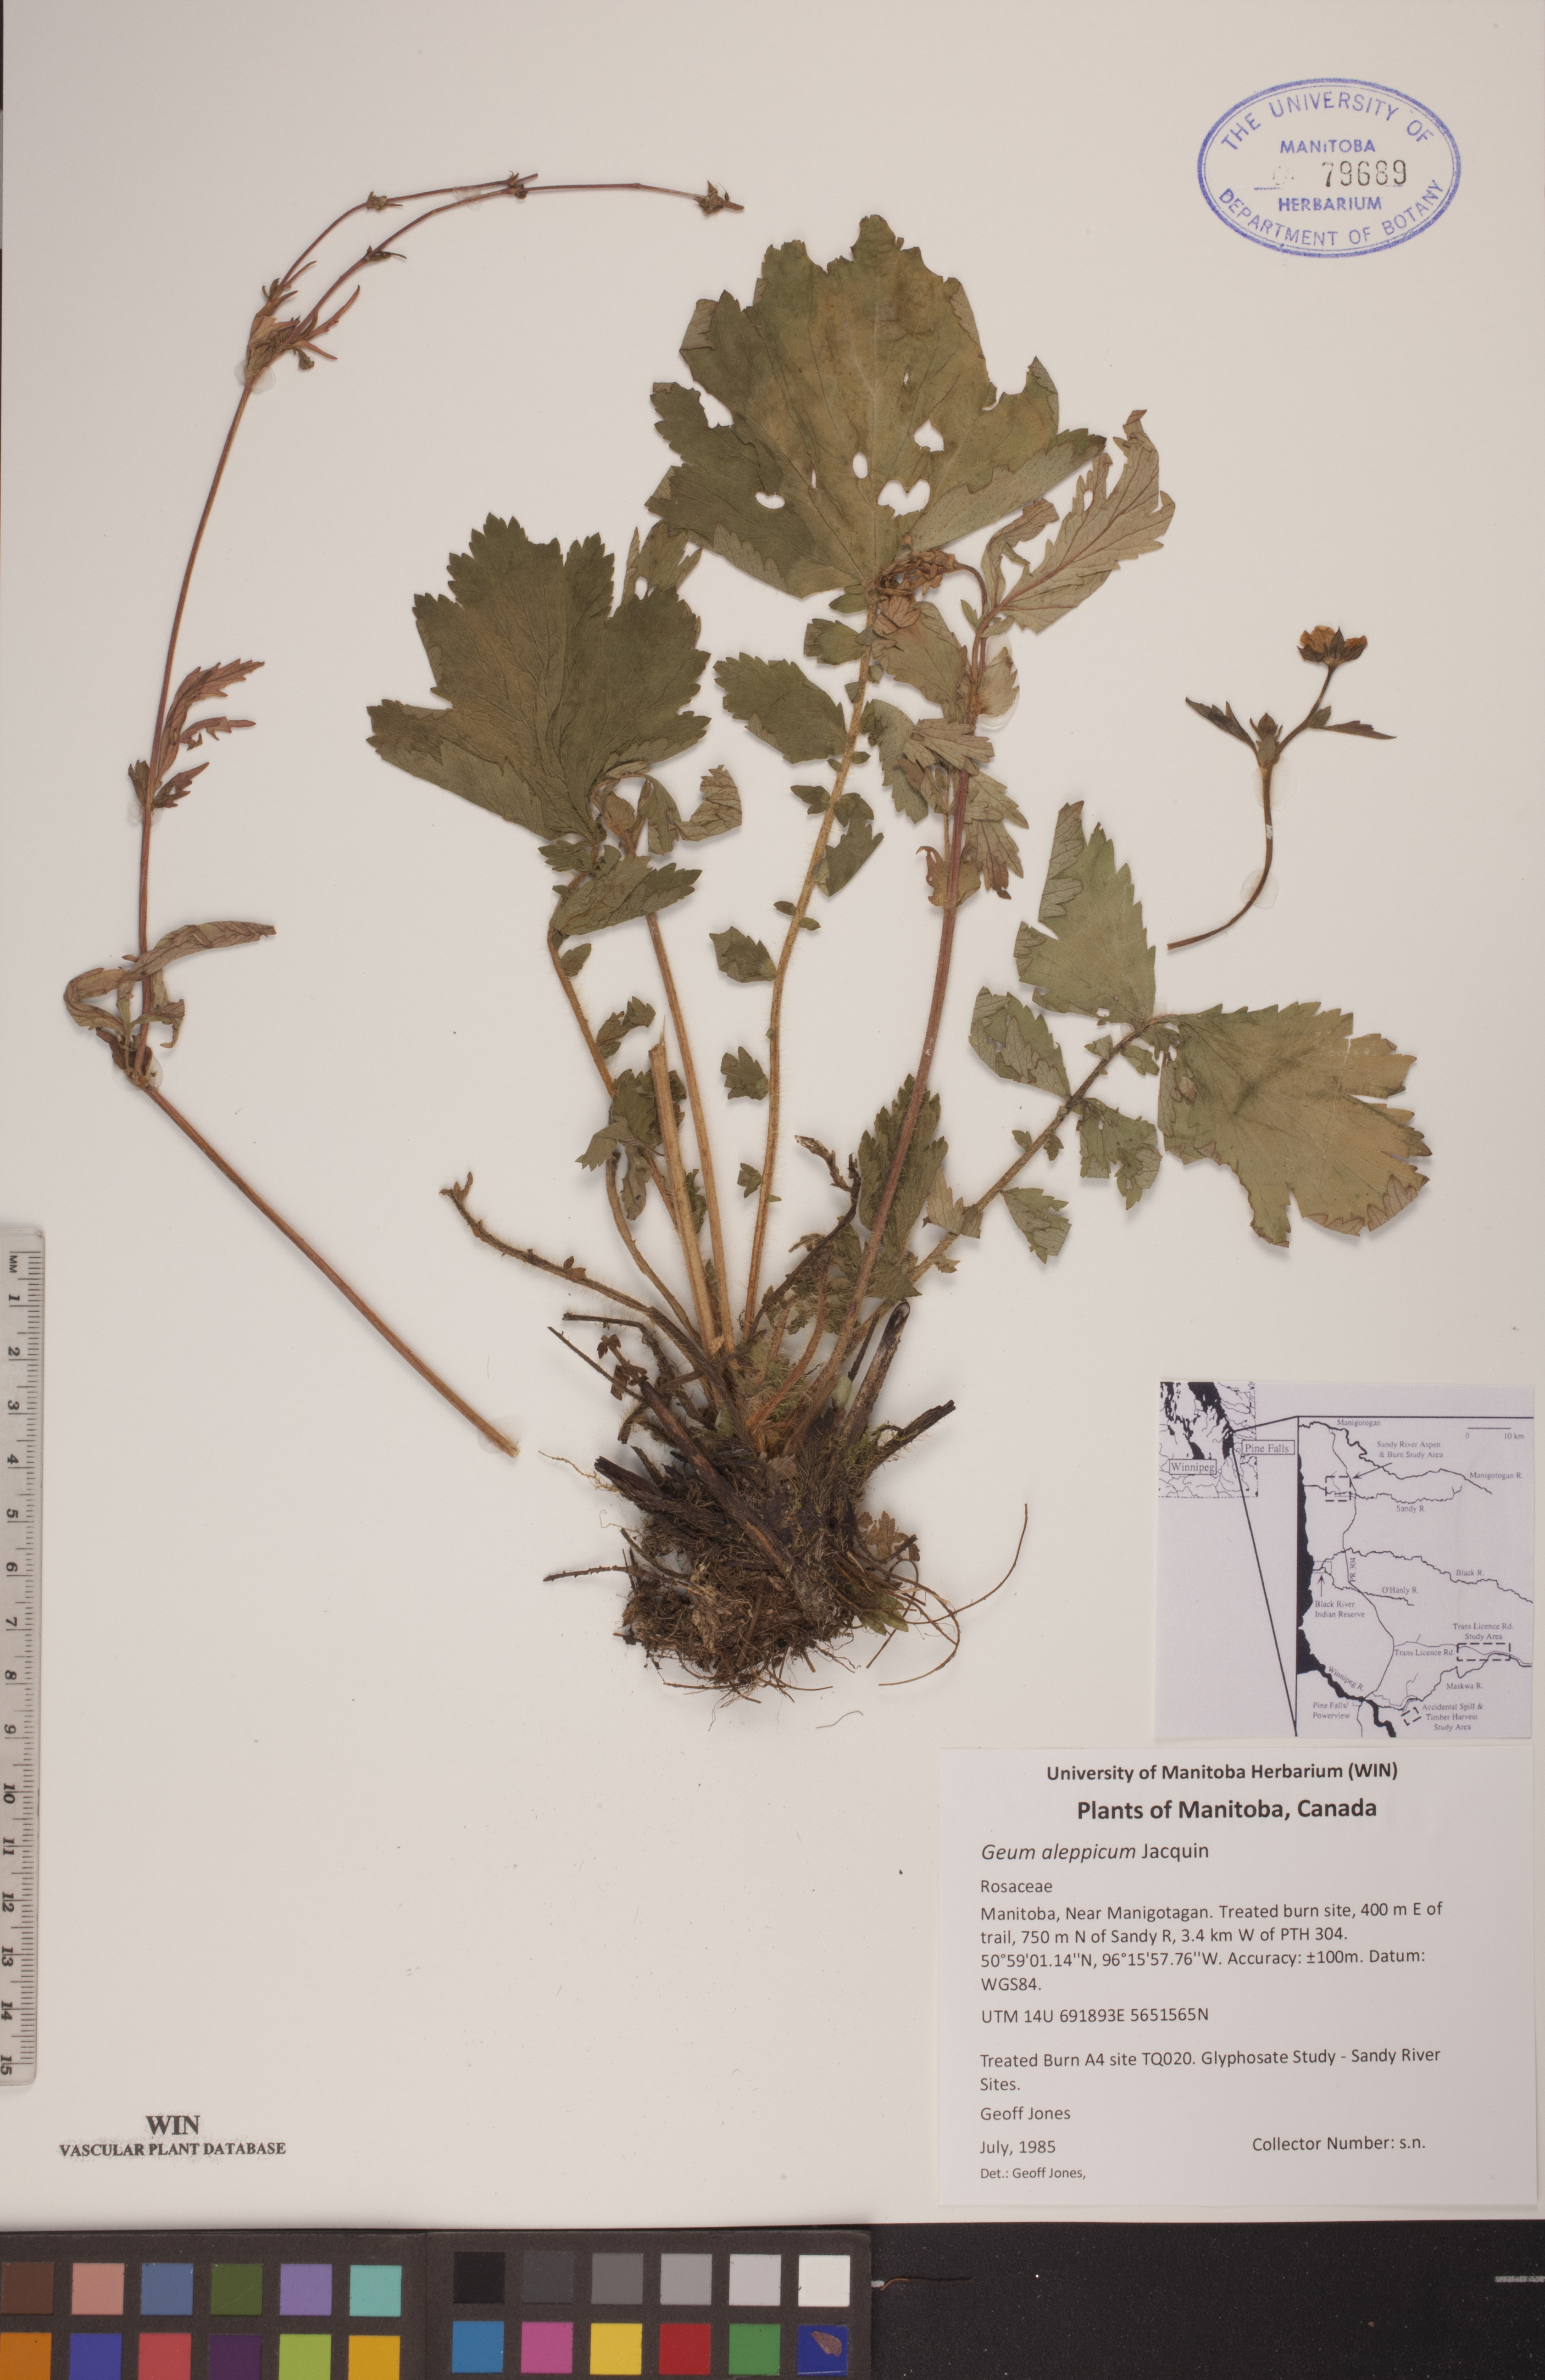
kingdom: Plantae
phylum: Tracheophyta
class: Magnoliopsida
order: Rosales
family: Rosaceae
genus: Geum
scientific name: Geum aleppicum
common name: Yellow avens
